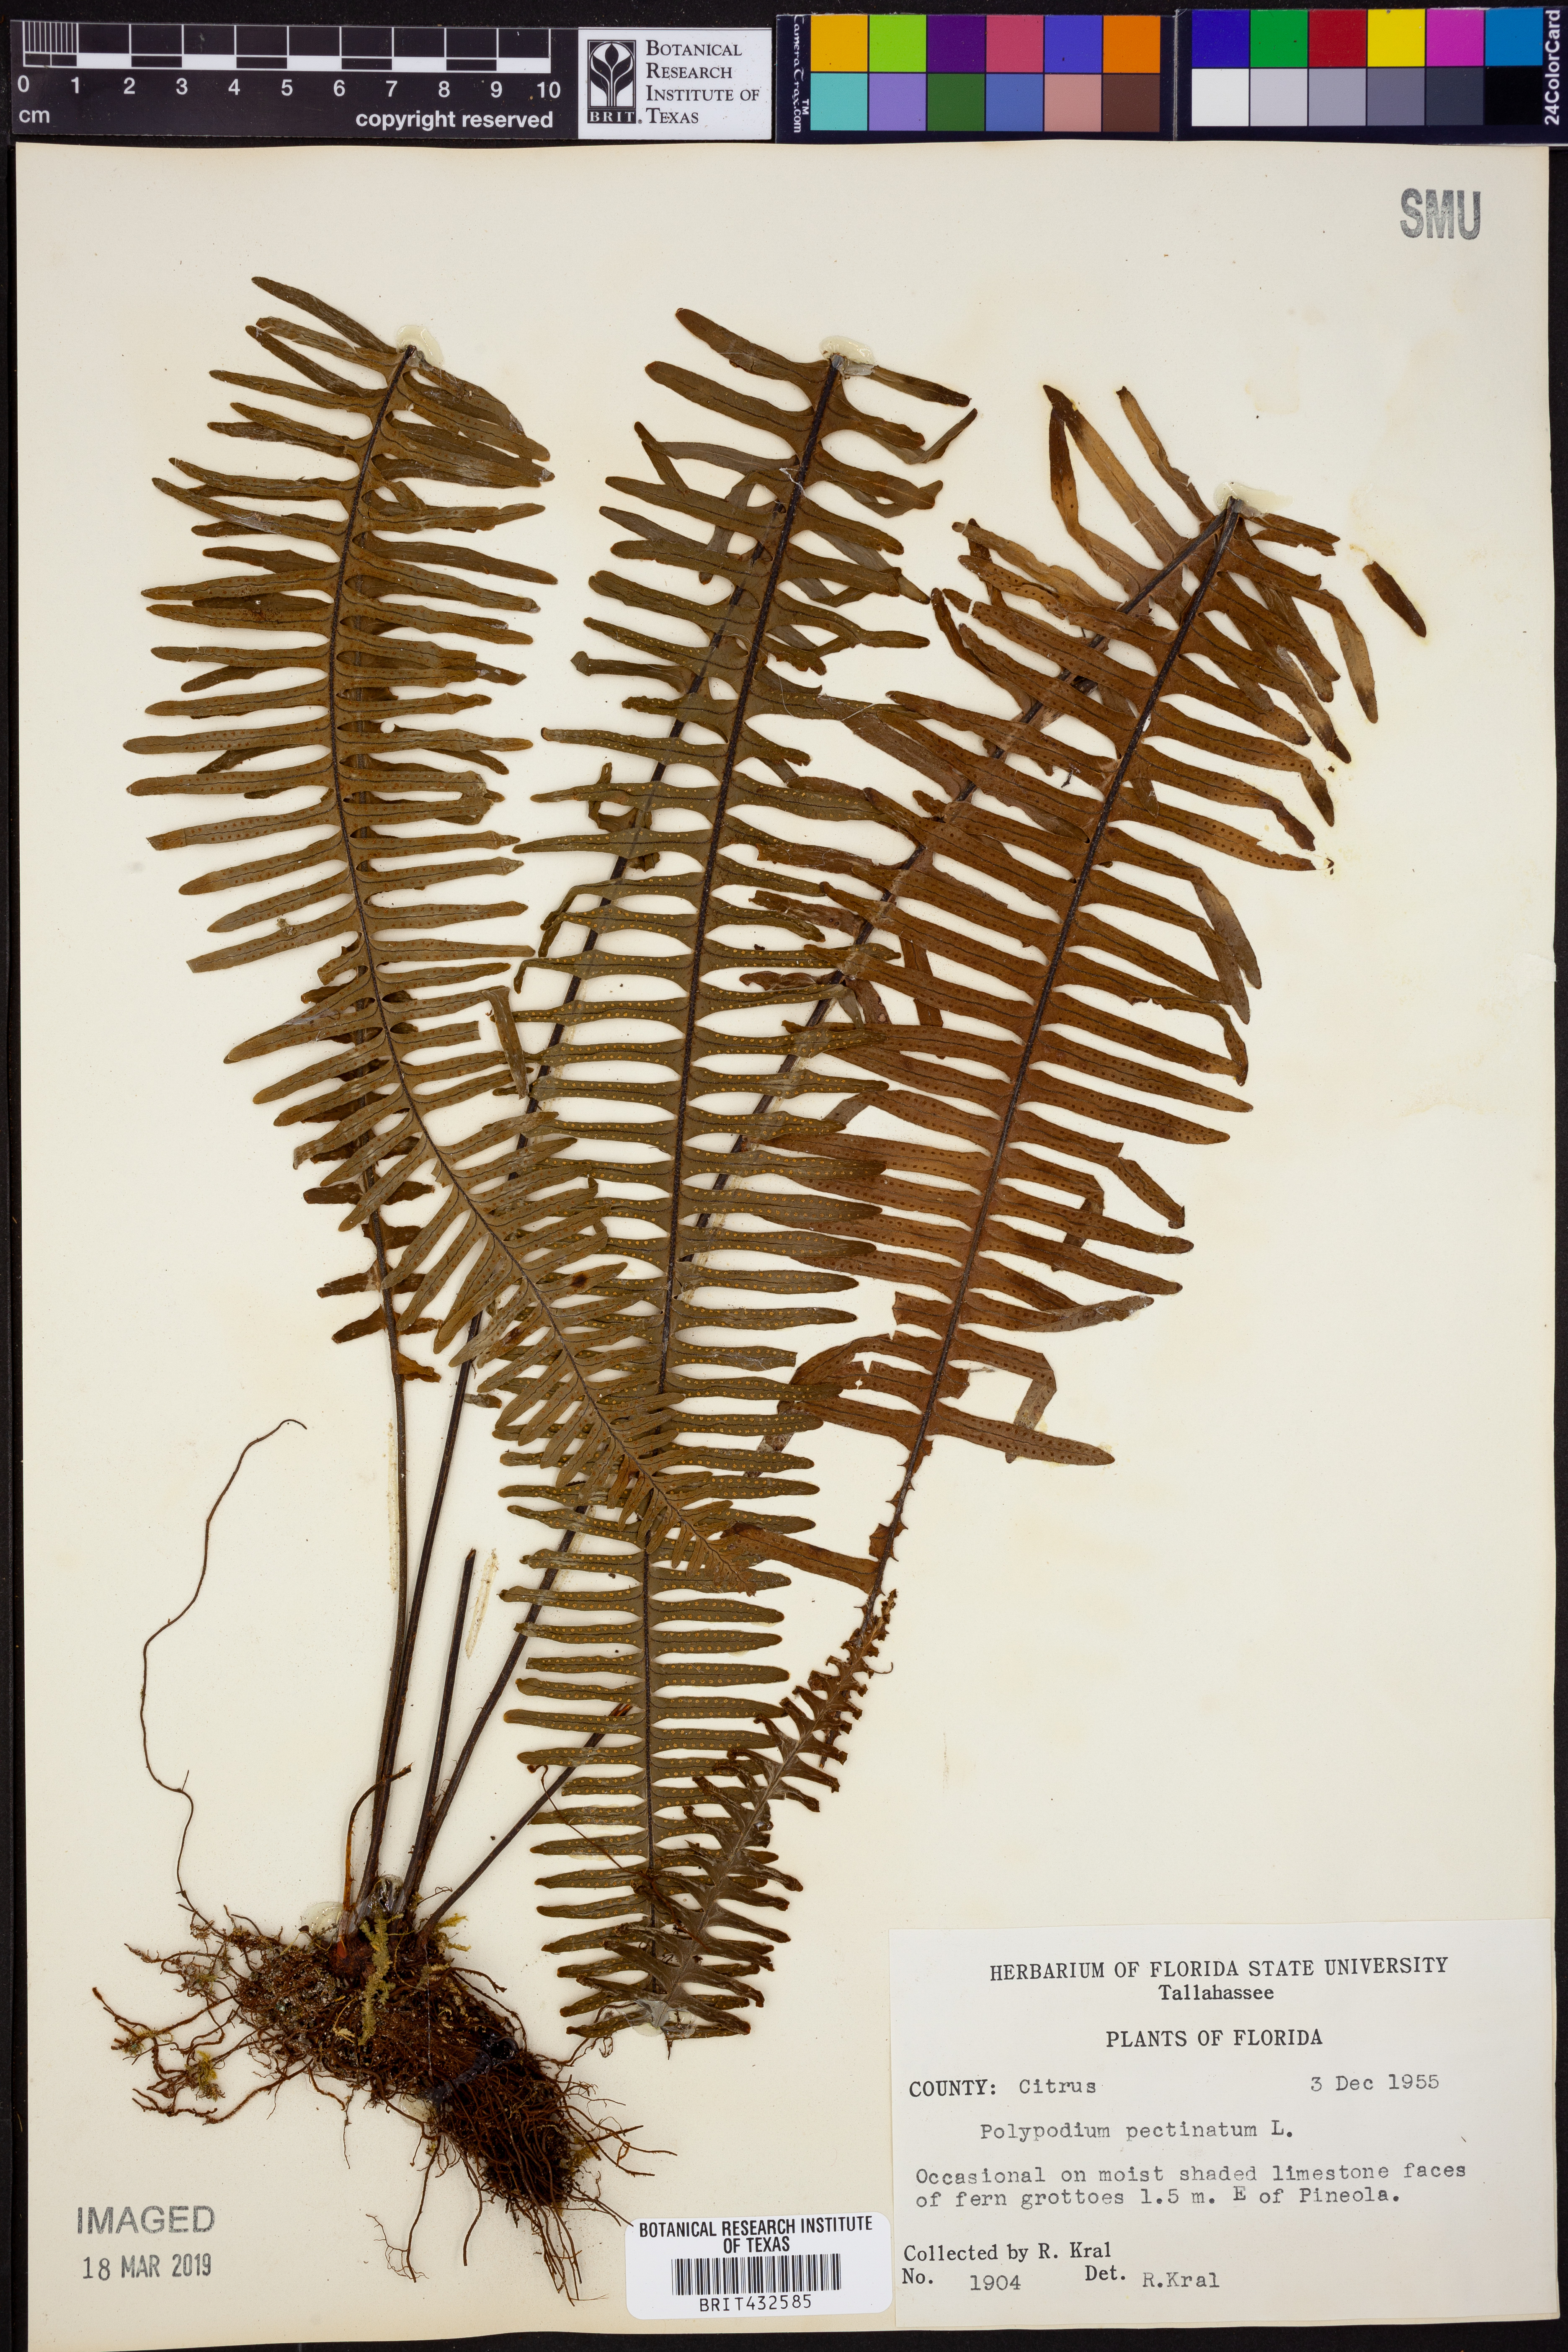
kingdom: Plantae
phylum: Tracheophyta
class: Polypodiopsida
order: Polypodiales
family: Polypodiaceae
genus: Pecluma
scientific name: Pecluma pectinata
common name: Msasa fern
